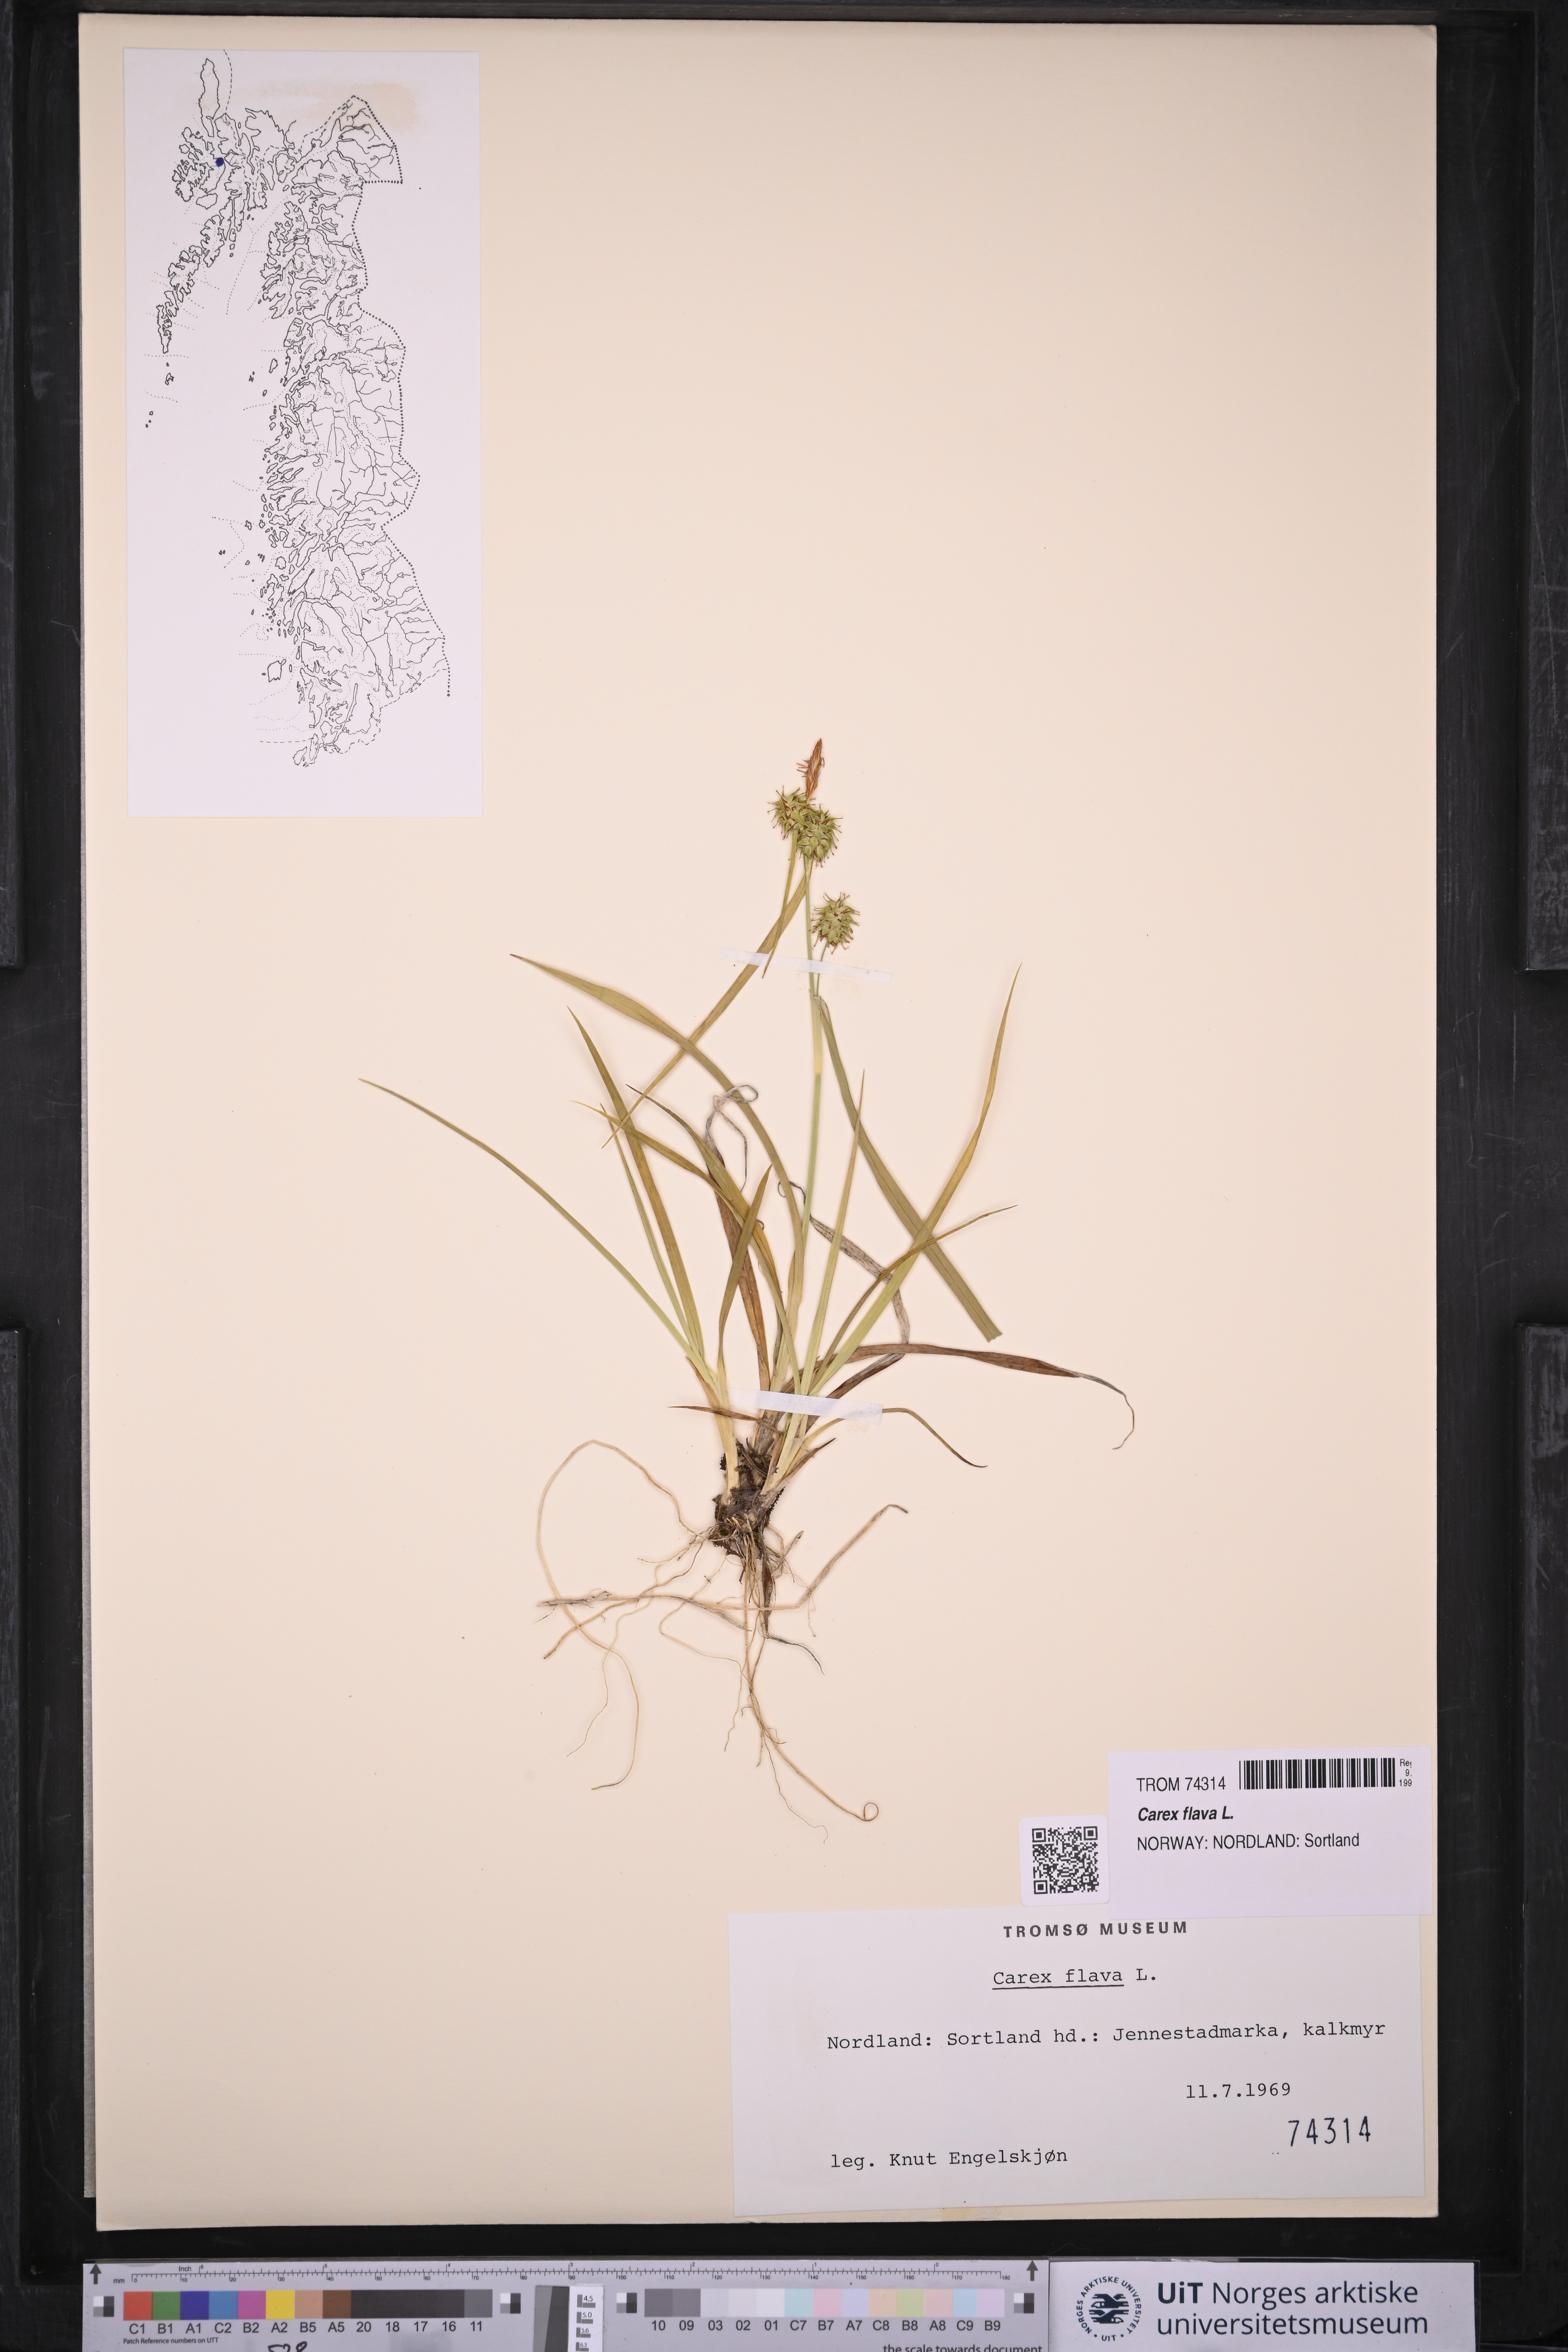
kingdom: Plantae
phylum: Tracheophyta
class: Liliopsida
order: Poales
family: Cyperaceae
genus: Carex
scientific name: Carex flava
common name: Large yellow-sedge
